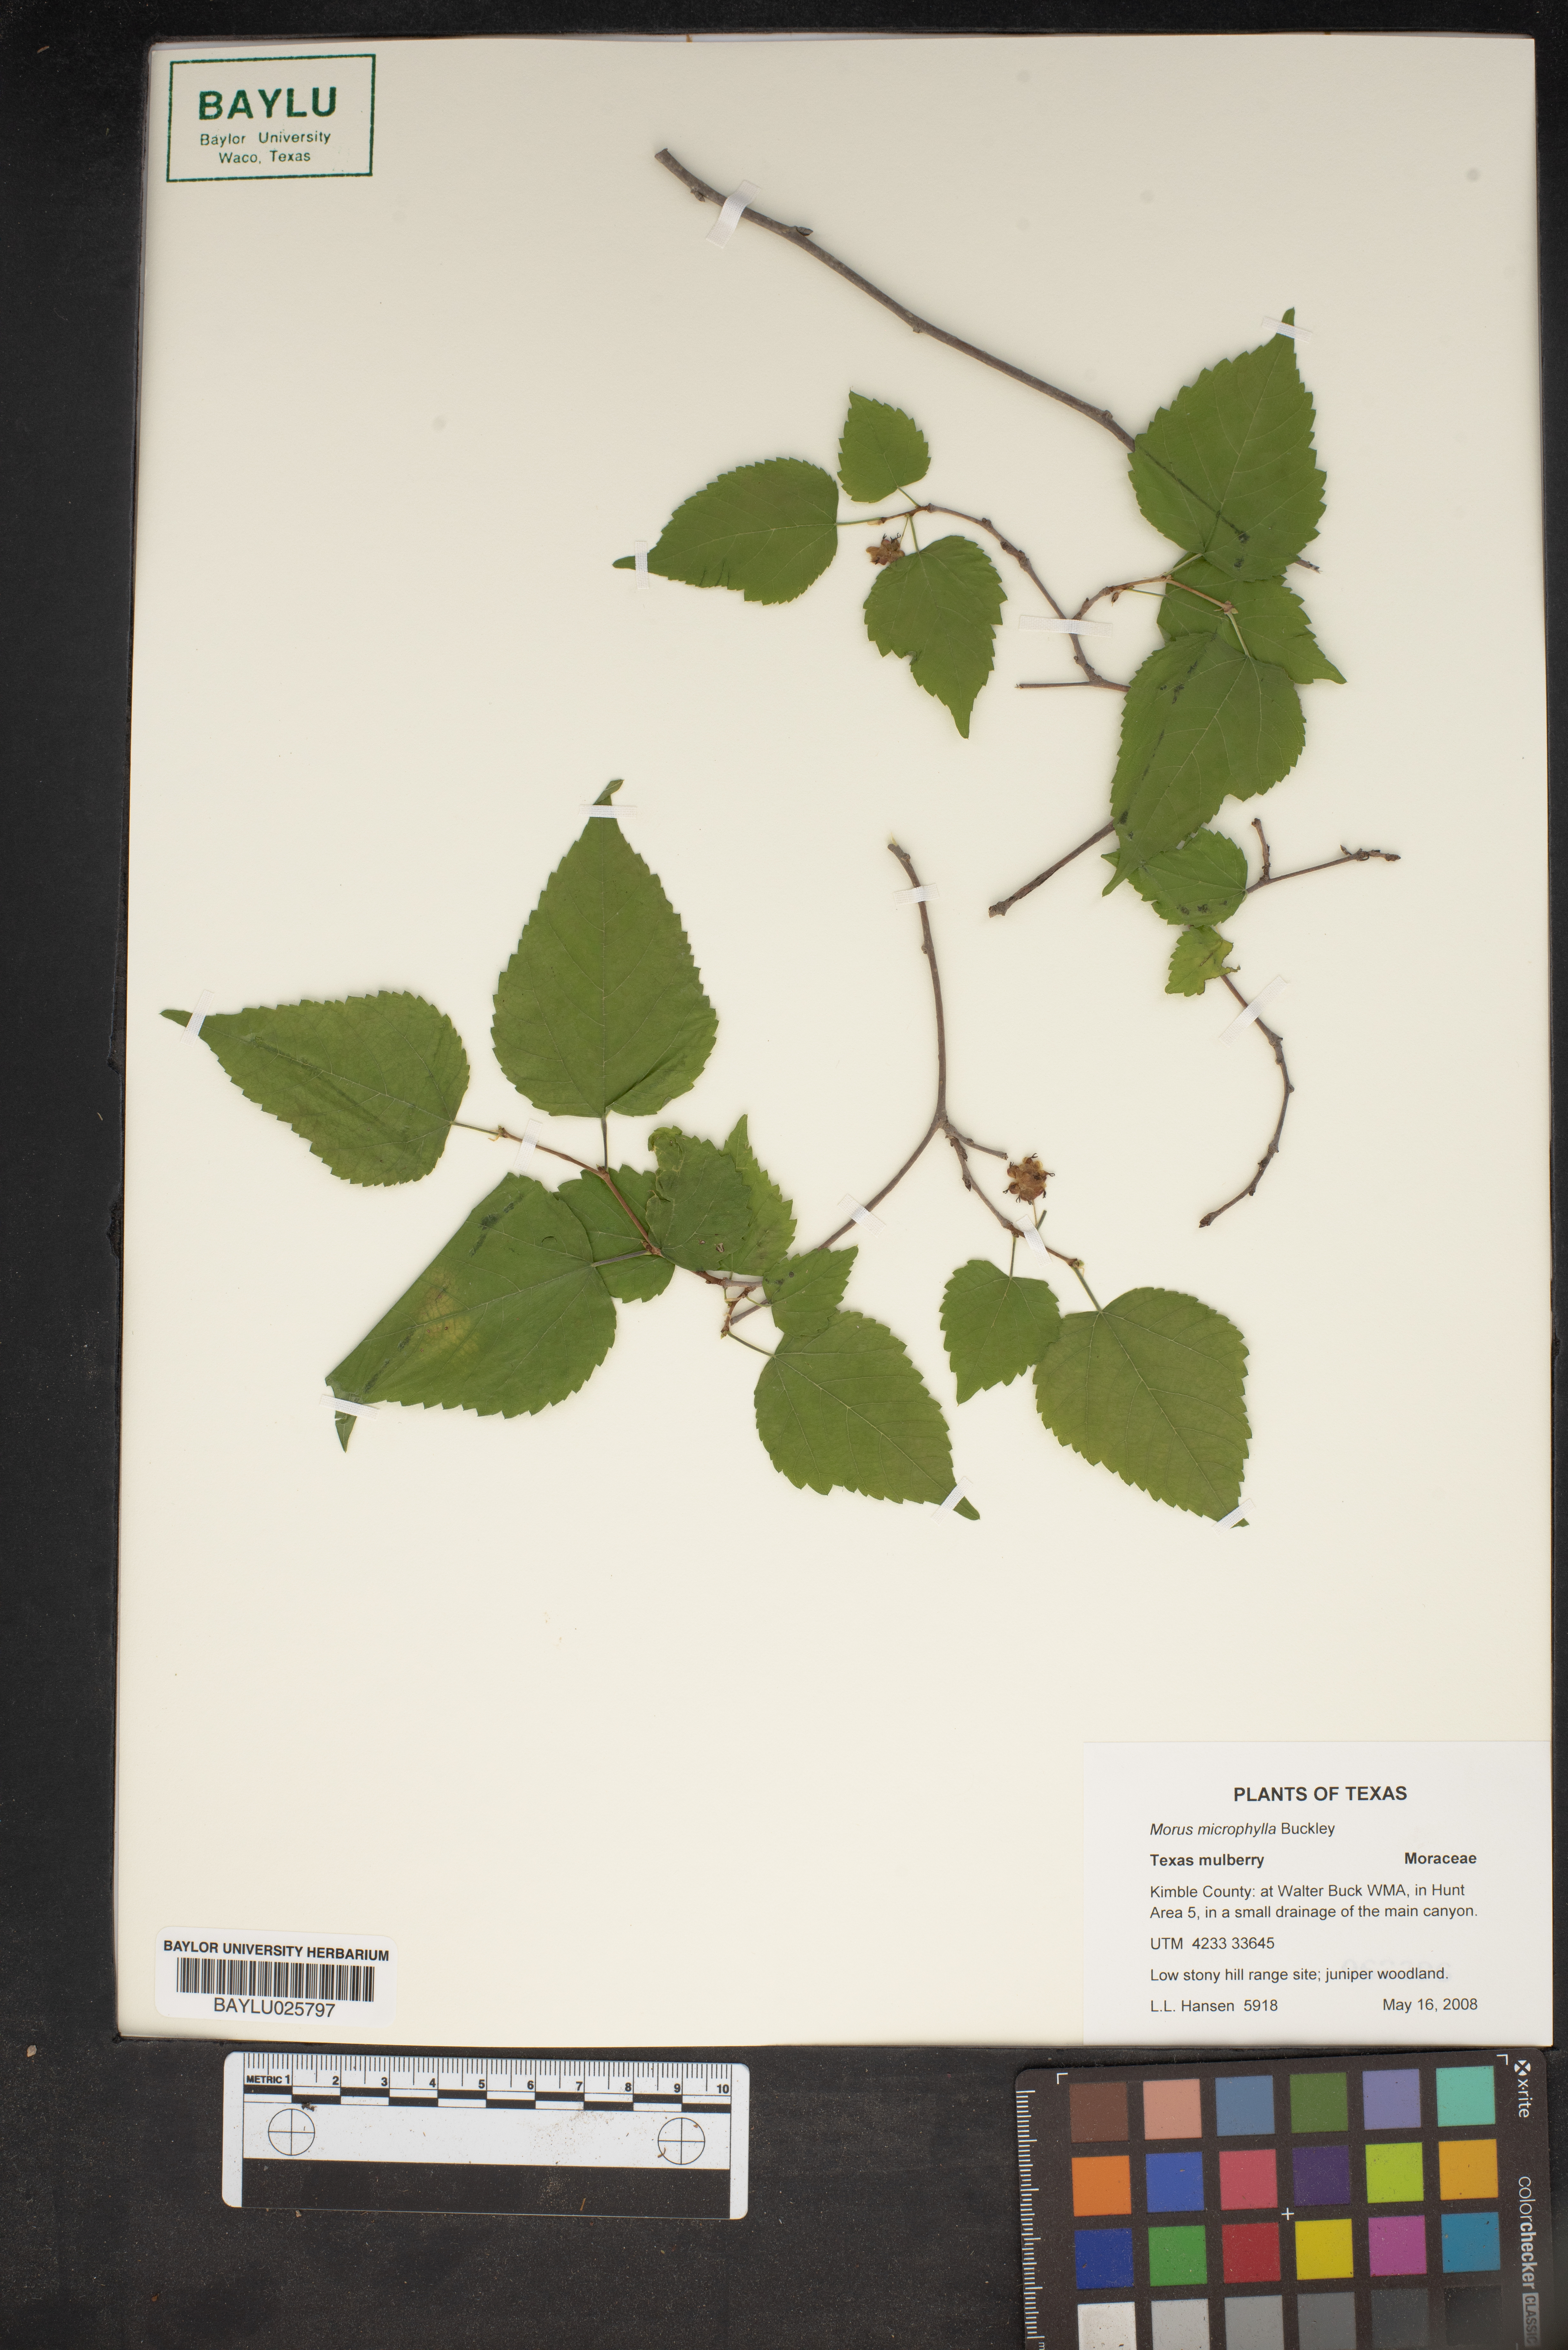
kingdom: Plantae
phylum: Tracheophyta
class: Magnoliopsida
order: Rosales
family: Moraceae
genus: Morus
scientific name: Morus microphylla
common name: Mexican mulberry
